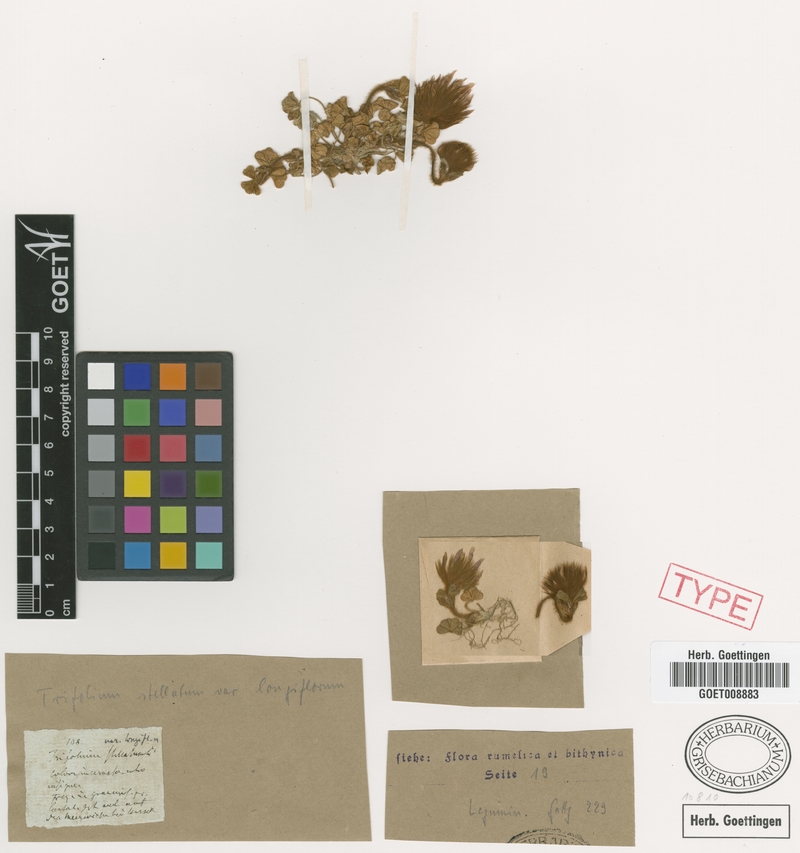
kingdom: Plantae
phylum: Tracheophyta
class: Magnoliopsida
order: Fabales
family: Fabaceae
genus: Trifolium
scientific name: Trifolium stellatum
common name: Starry clover
